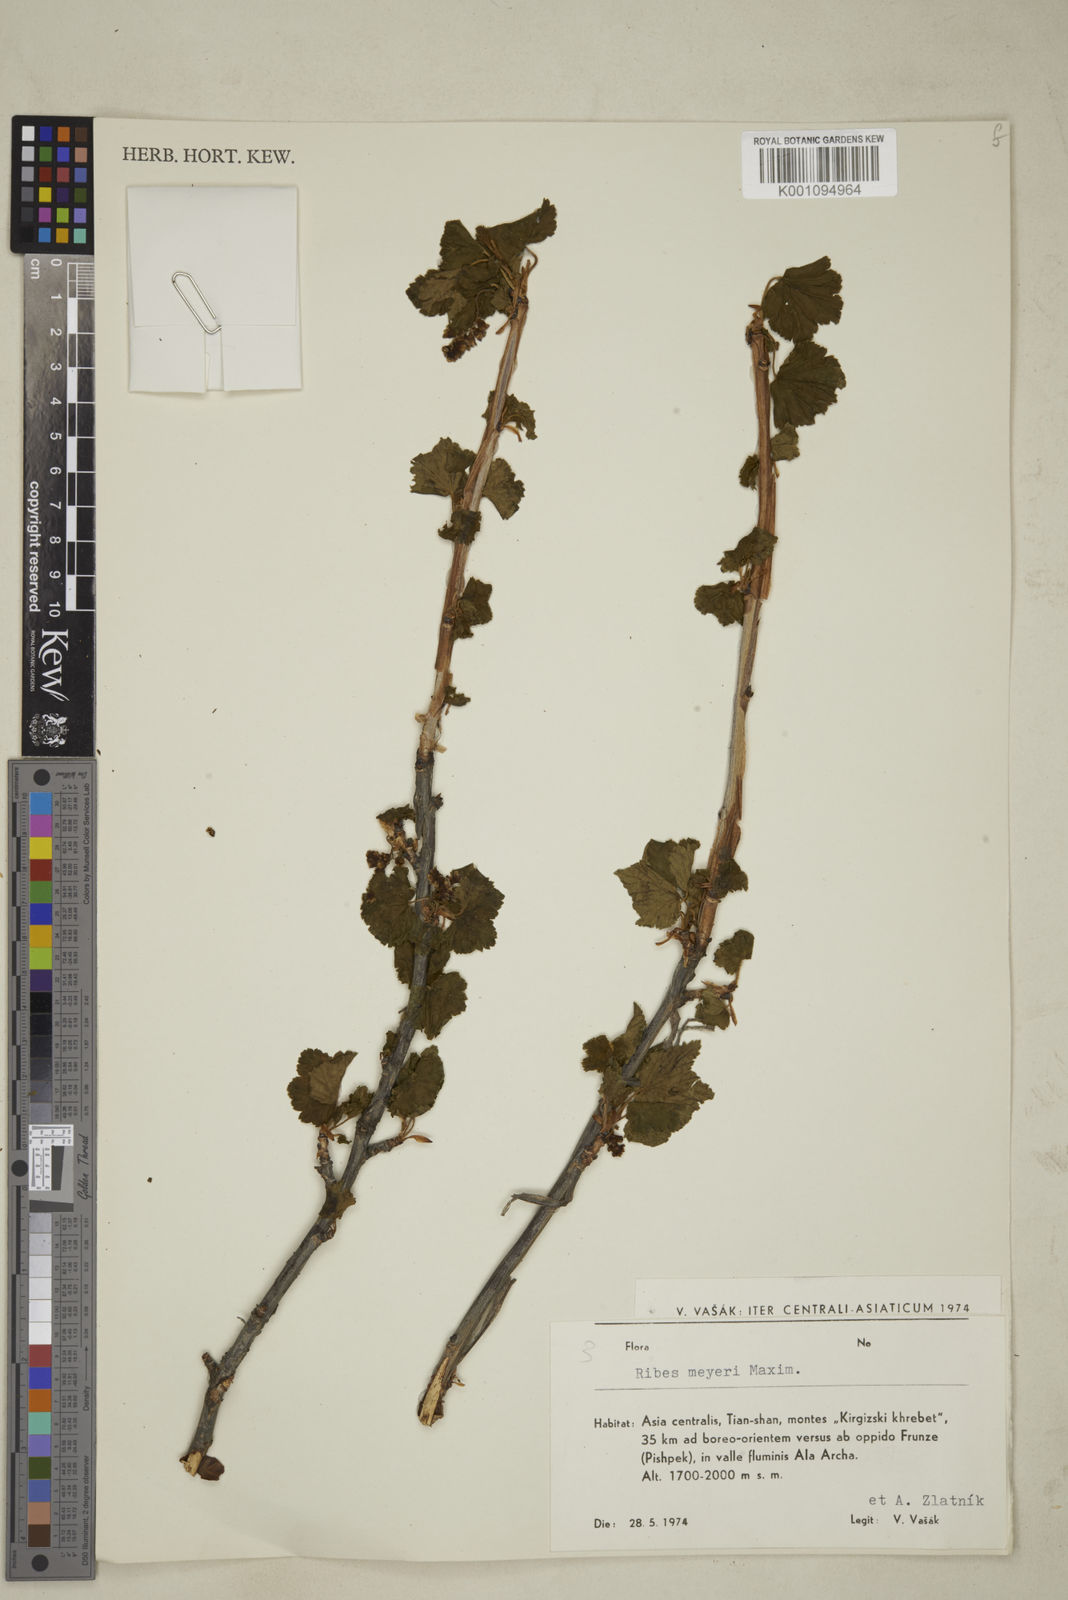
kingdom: Plantae
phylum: Tracheophyta
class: Magnoliopsida
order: Saxifragales
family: Grossulariaceae
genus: Ribes
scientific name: Ribes meyeri
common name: Meyer's currant
